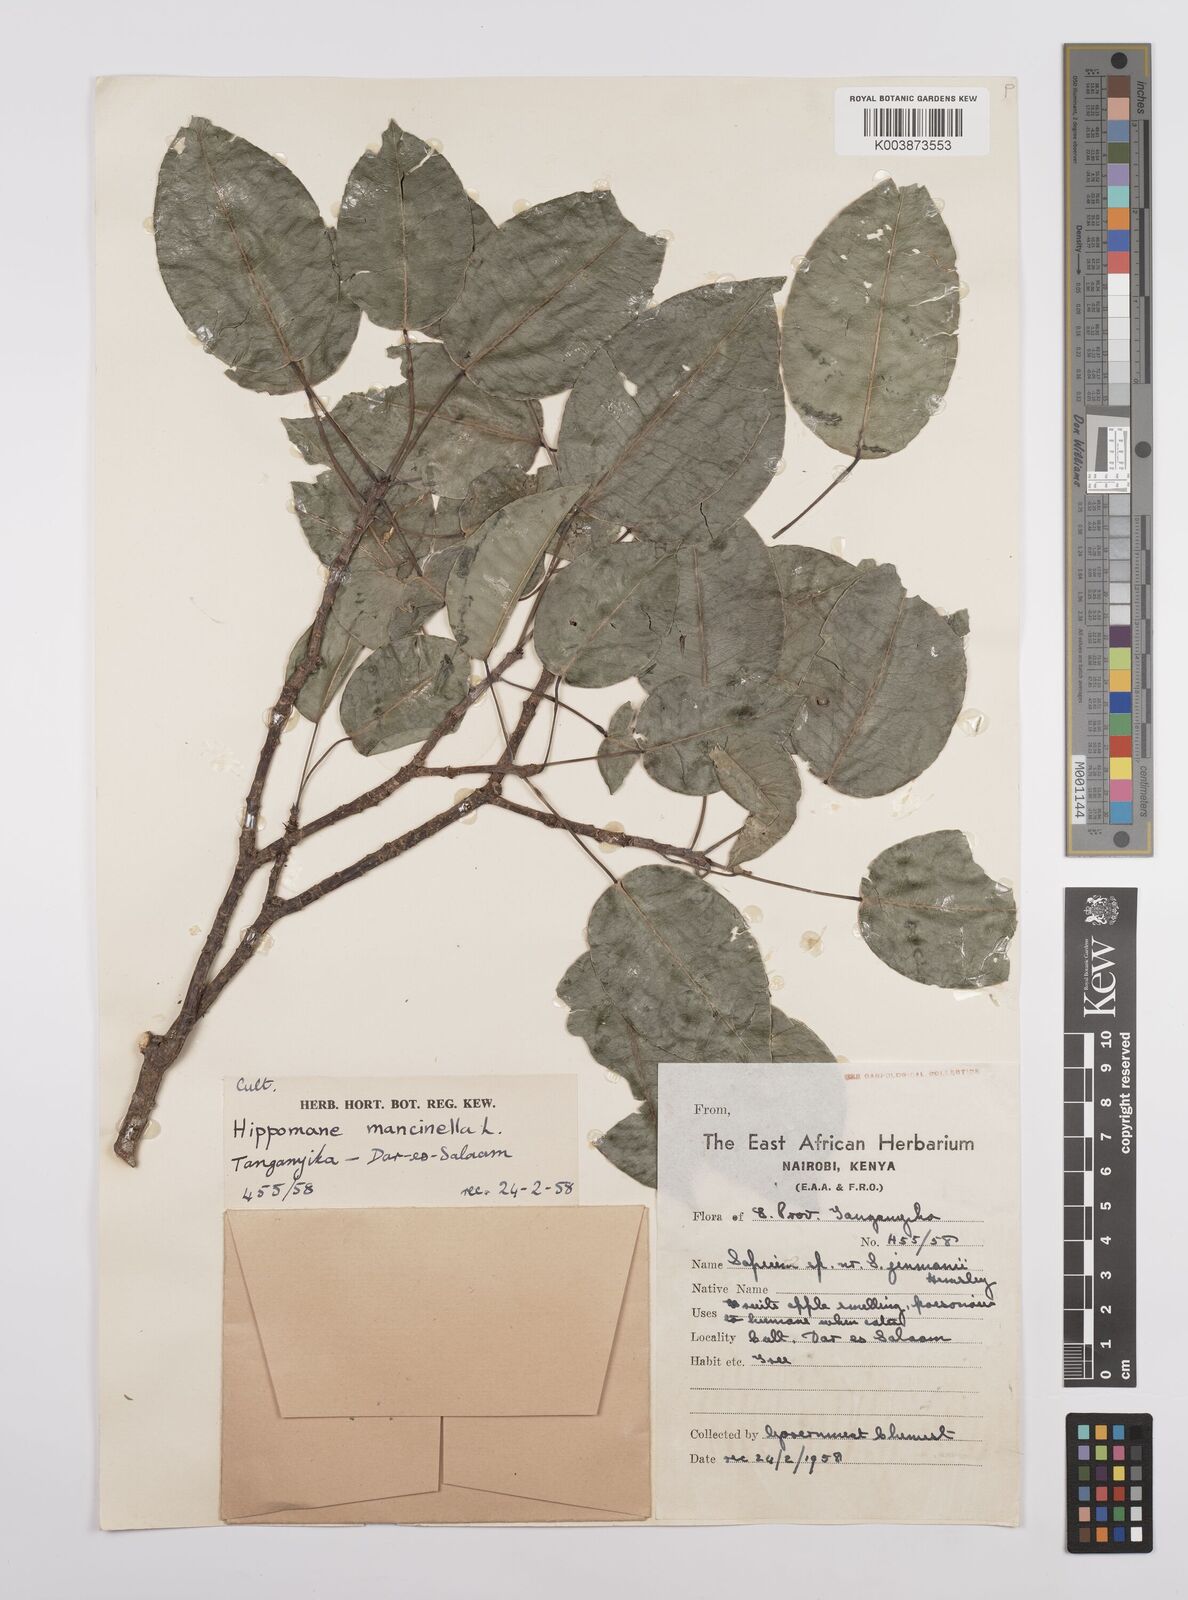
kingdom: Plantae
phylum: Tracheophyta
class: Magnoliopsida
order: Malpighiales
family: Euphorbiaceae
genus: Hippomane
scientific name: Hippomane mancinella
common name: Manchineel
